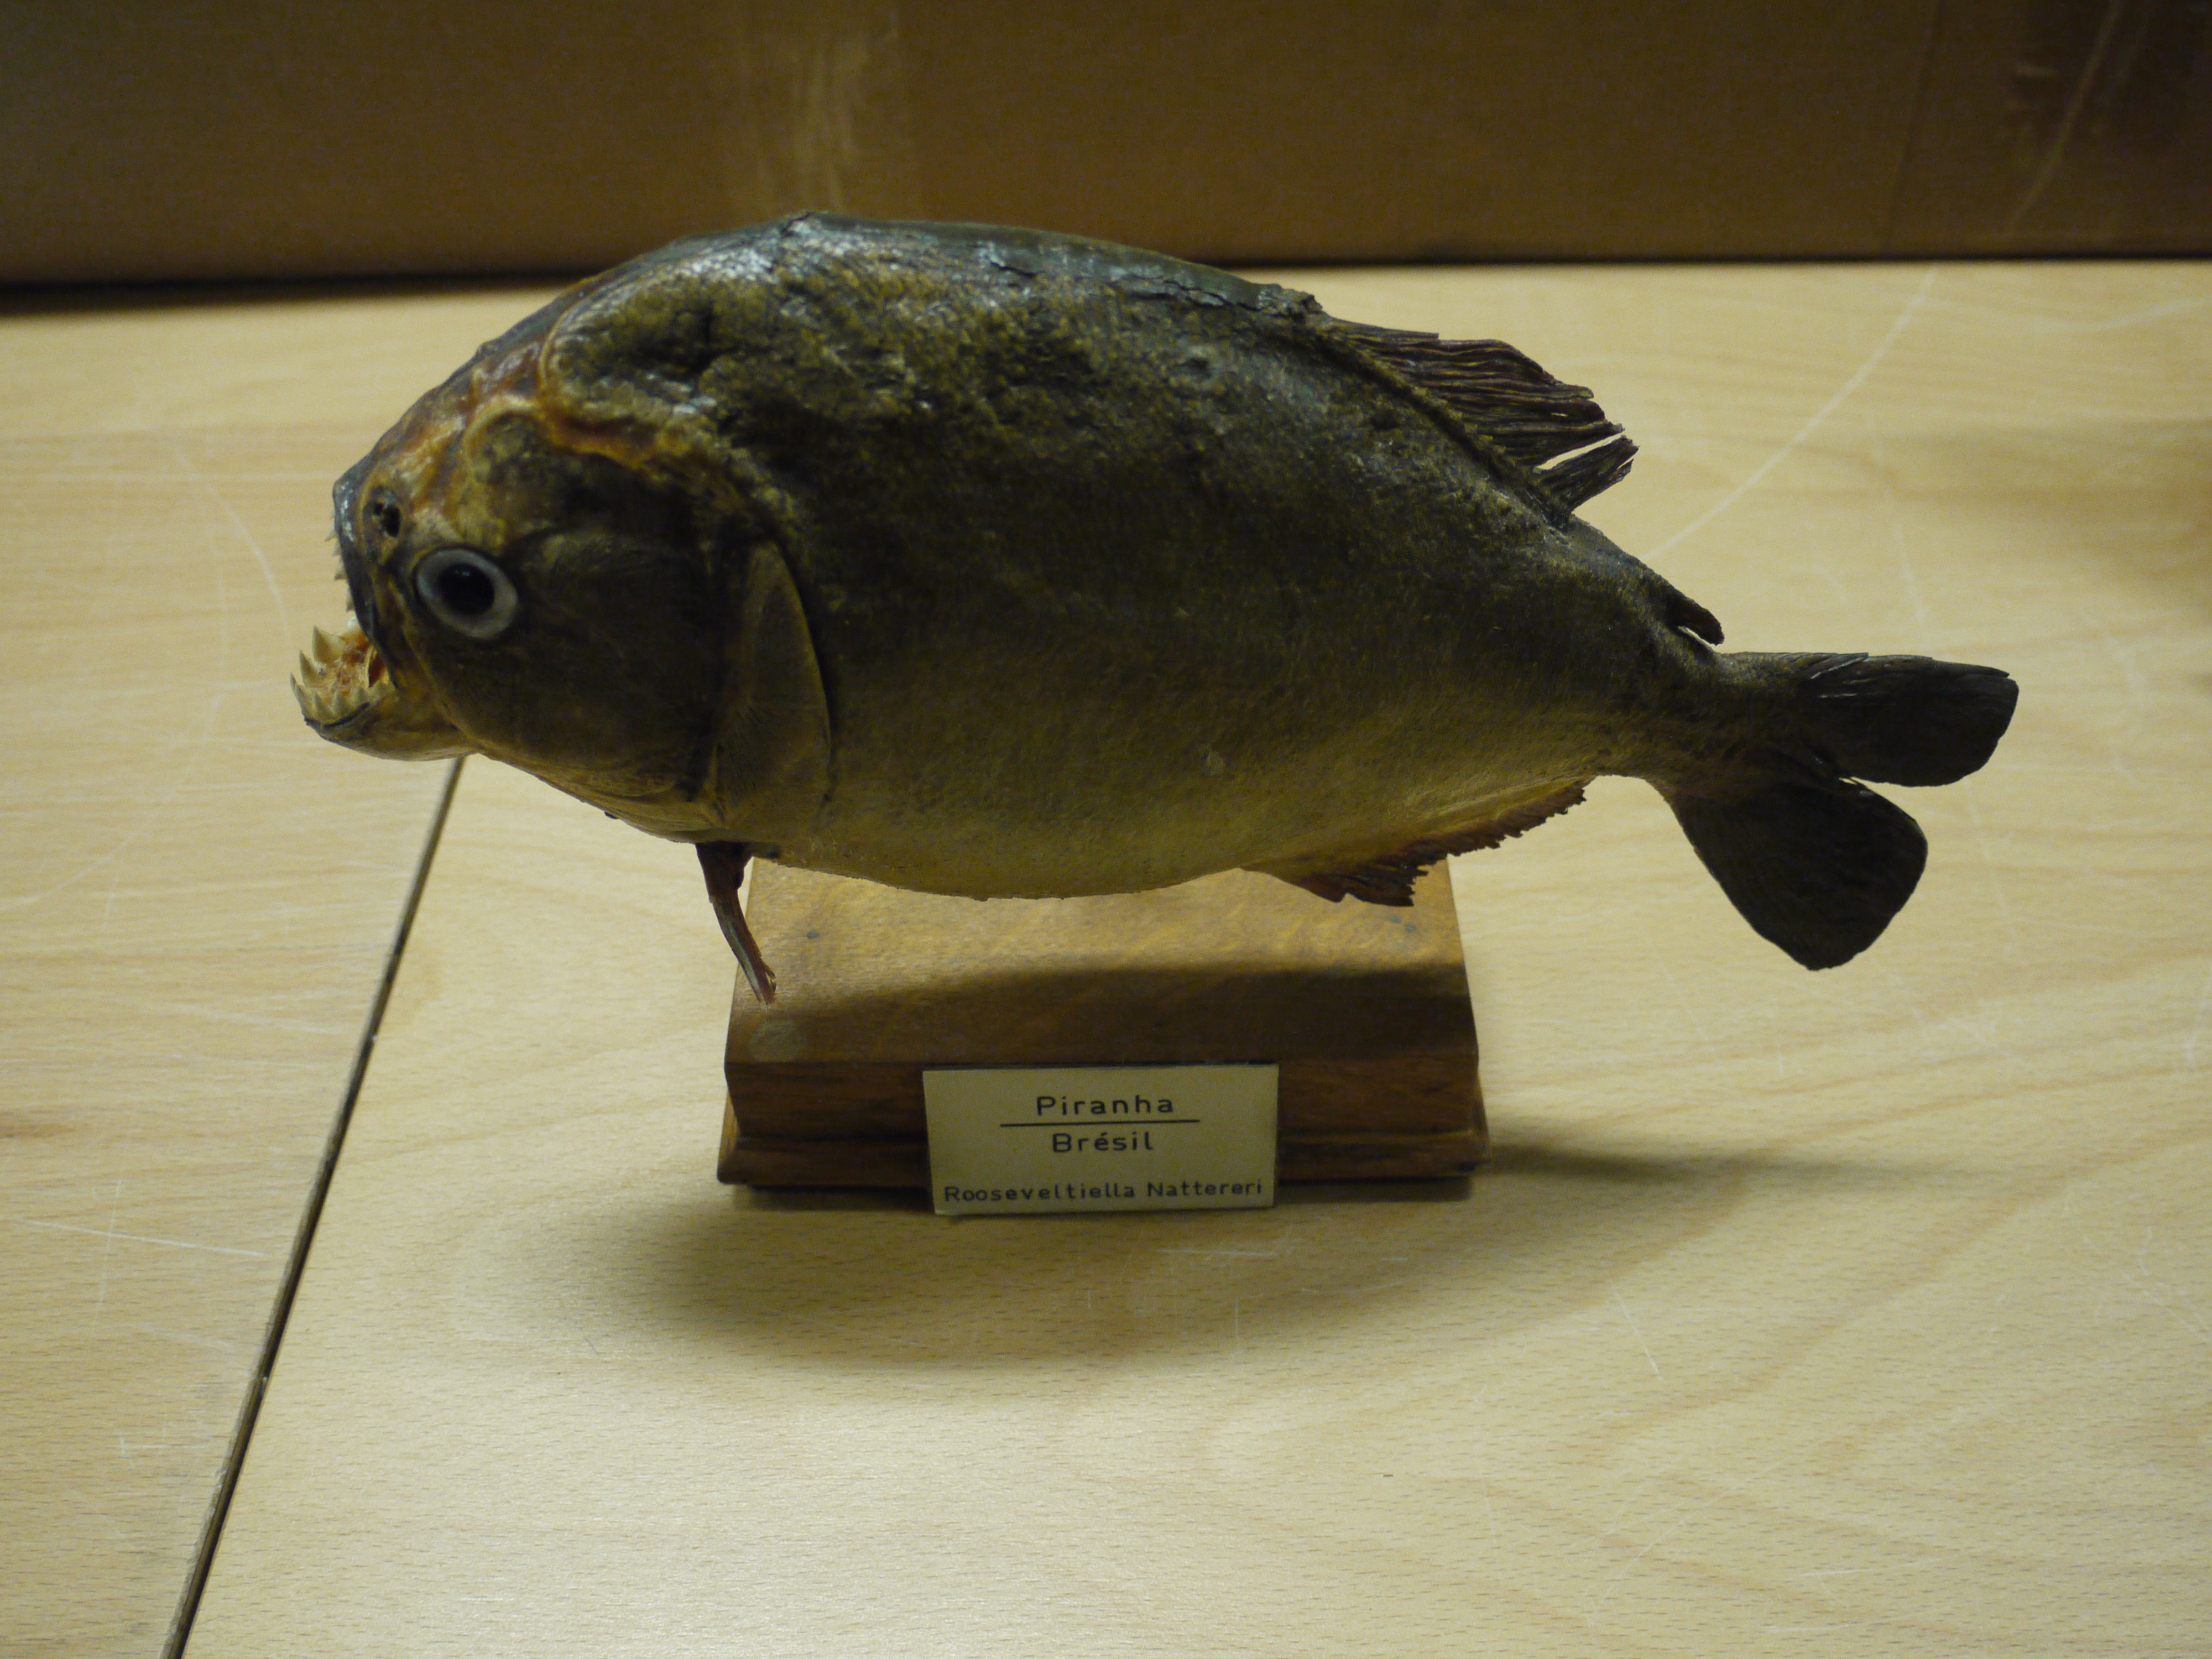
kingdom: Animalia
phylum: Chordata
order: Characiformes
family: Serrasalmidae
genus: Pygocentrus
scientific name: Pygocentrus nattereri
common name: Piranha
